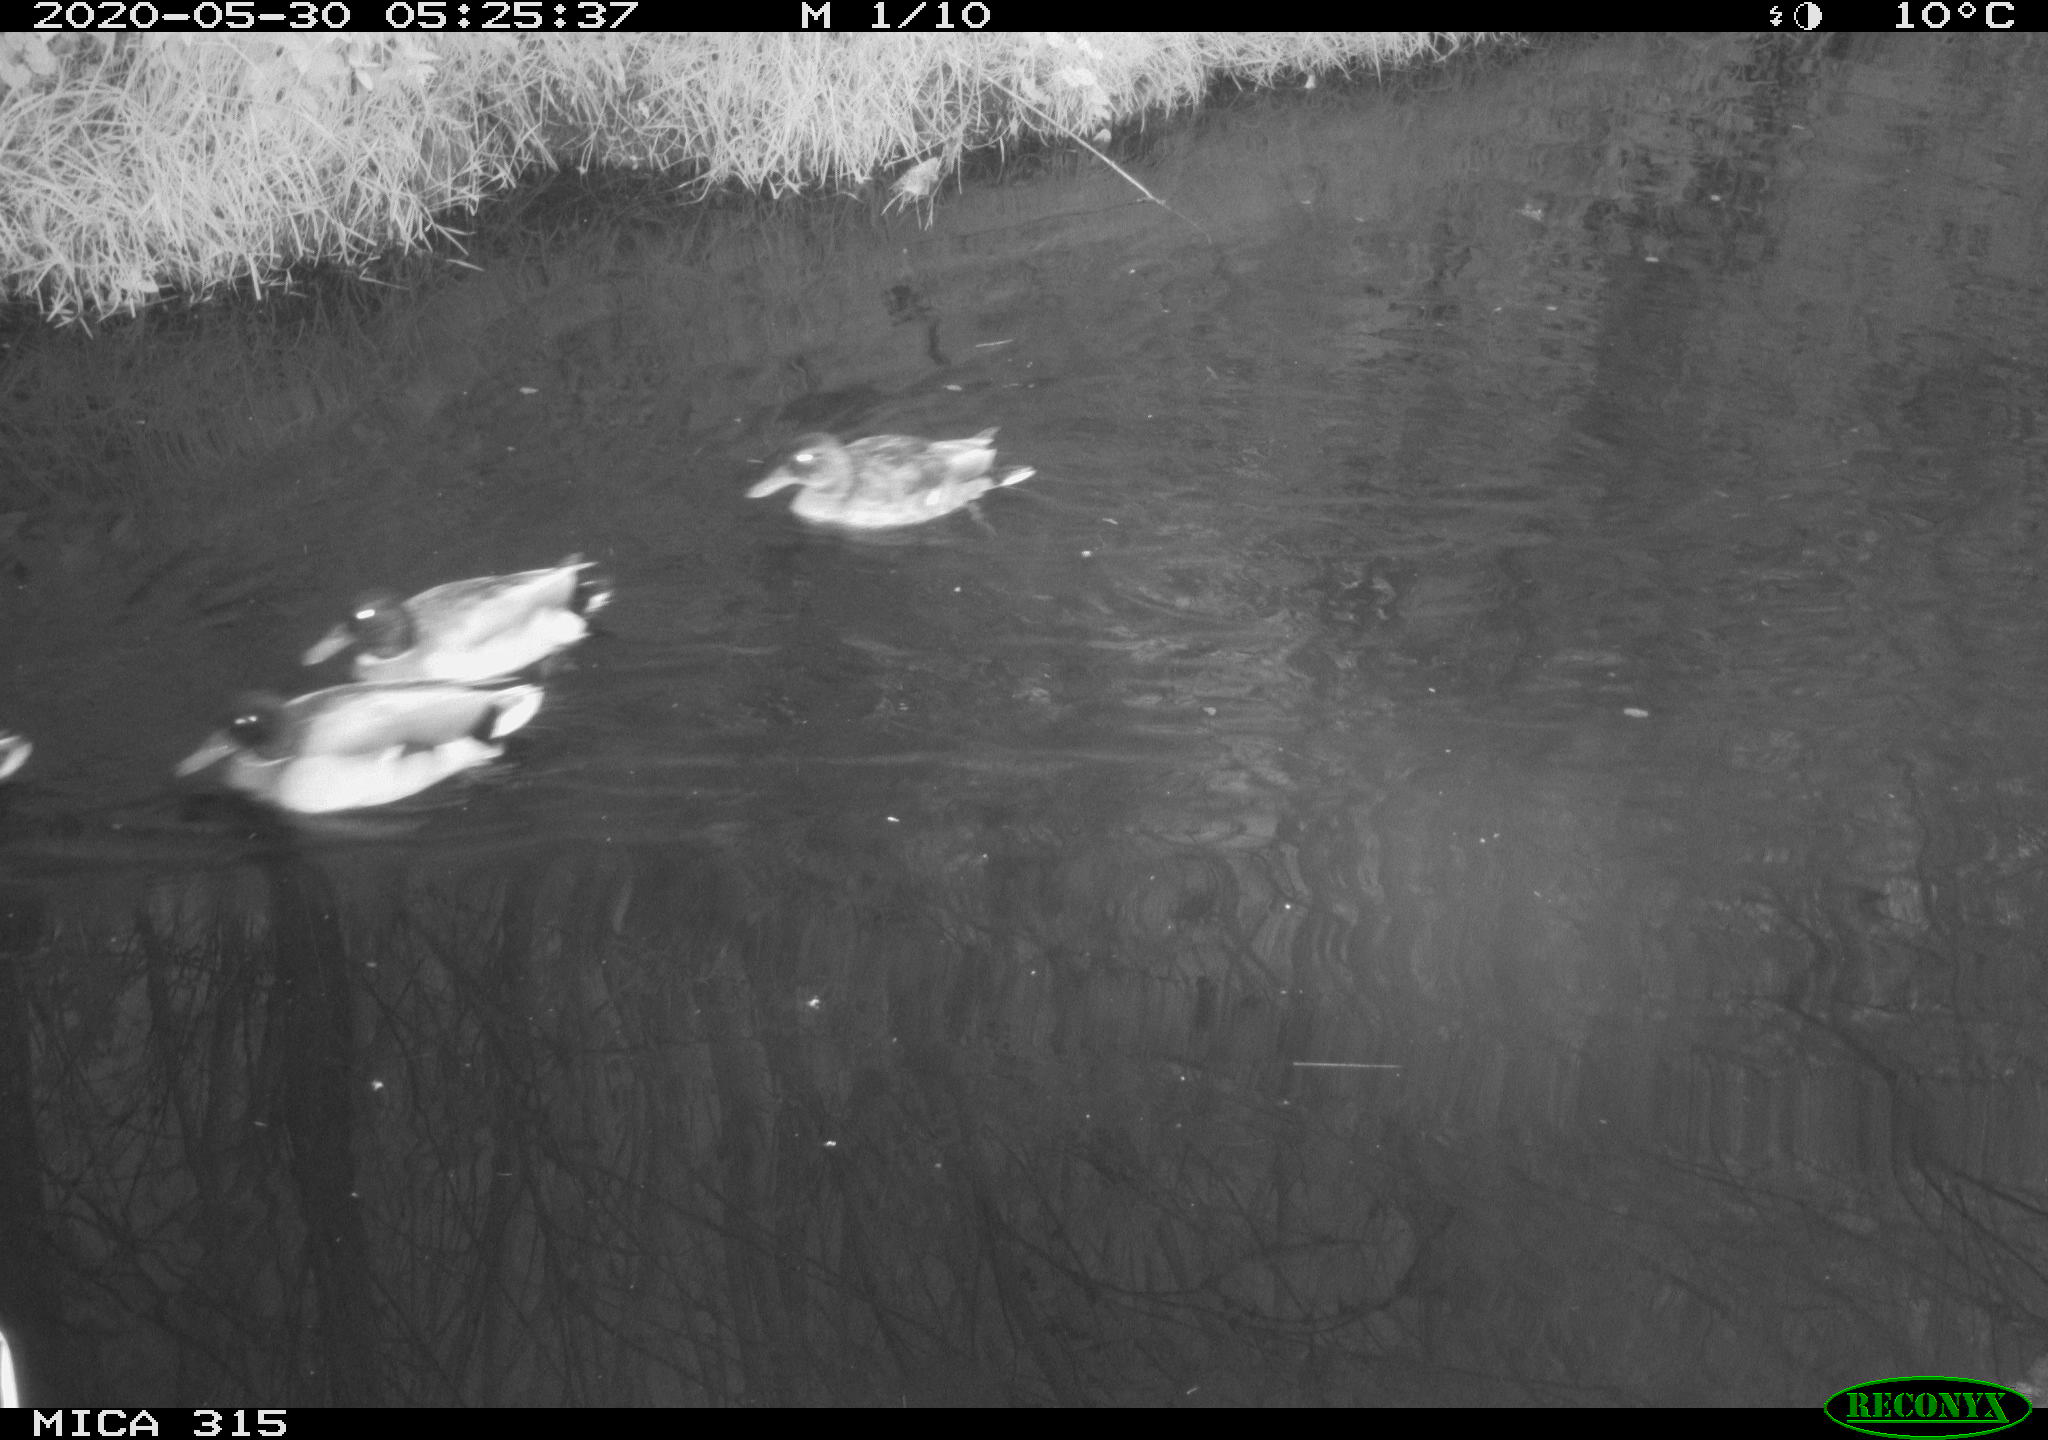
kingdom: Animalia
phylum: Chordata
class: Aves
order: Anseriformes
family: Anatidae
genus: Anas
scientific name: Anas platyrhynchos
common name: Mallard
